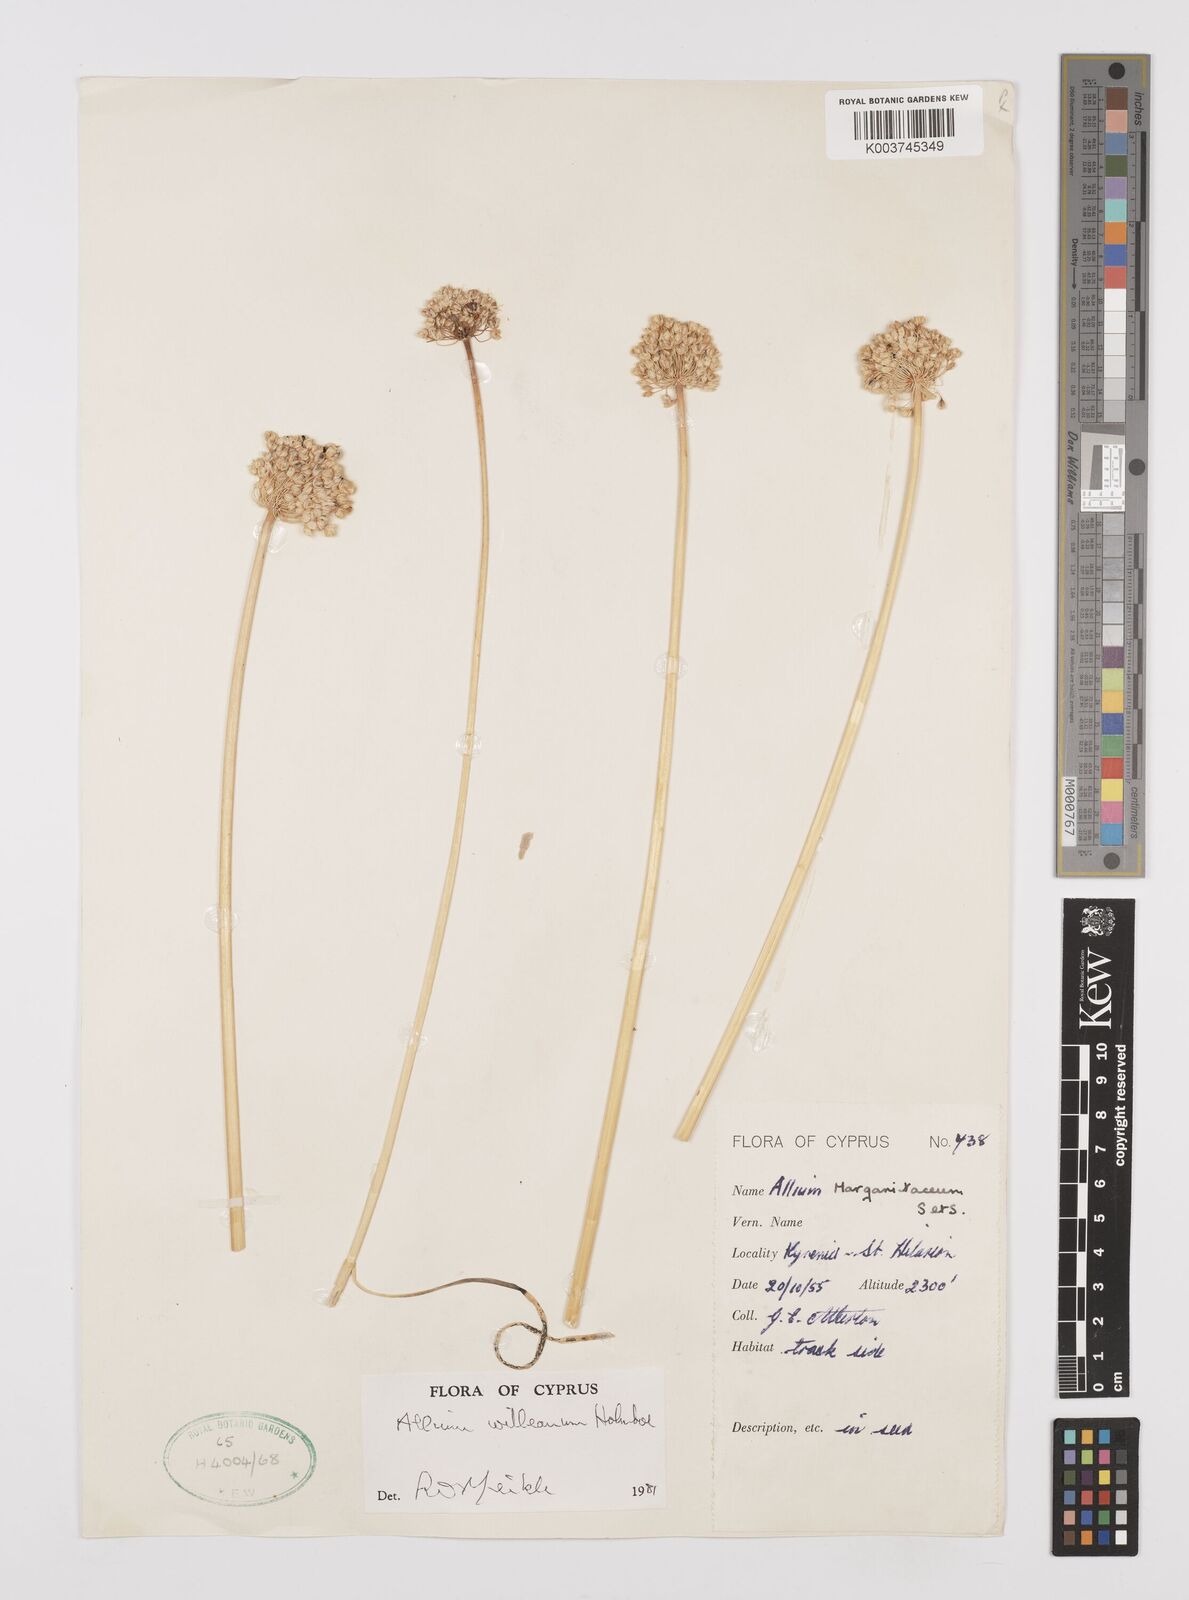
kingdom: Plantae
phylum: Tracheophyta
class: Liliopsida
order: Asparagales
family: Amaryllidaceae
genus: Allium
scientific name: Allium willeanum
